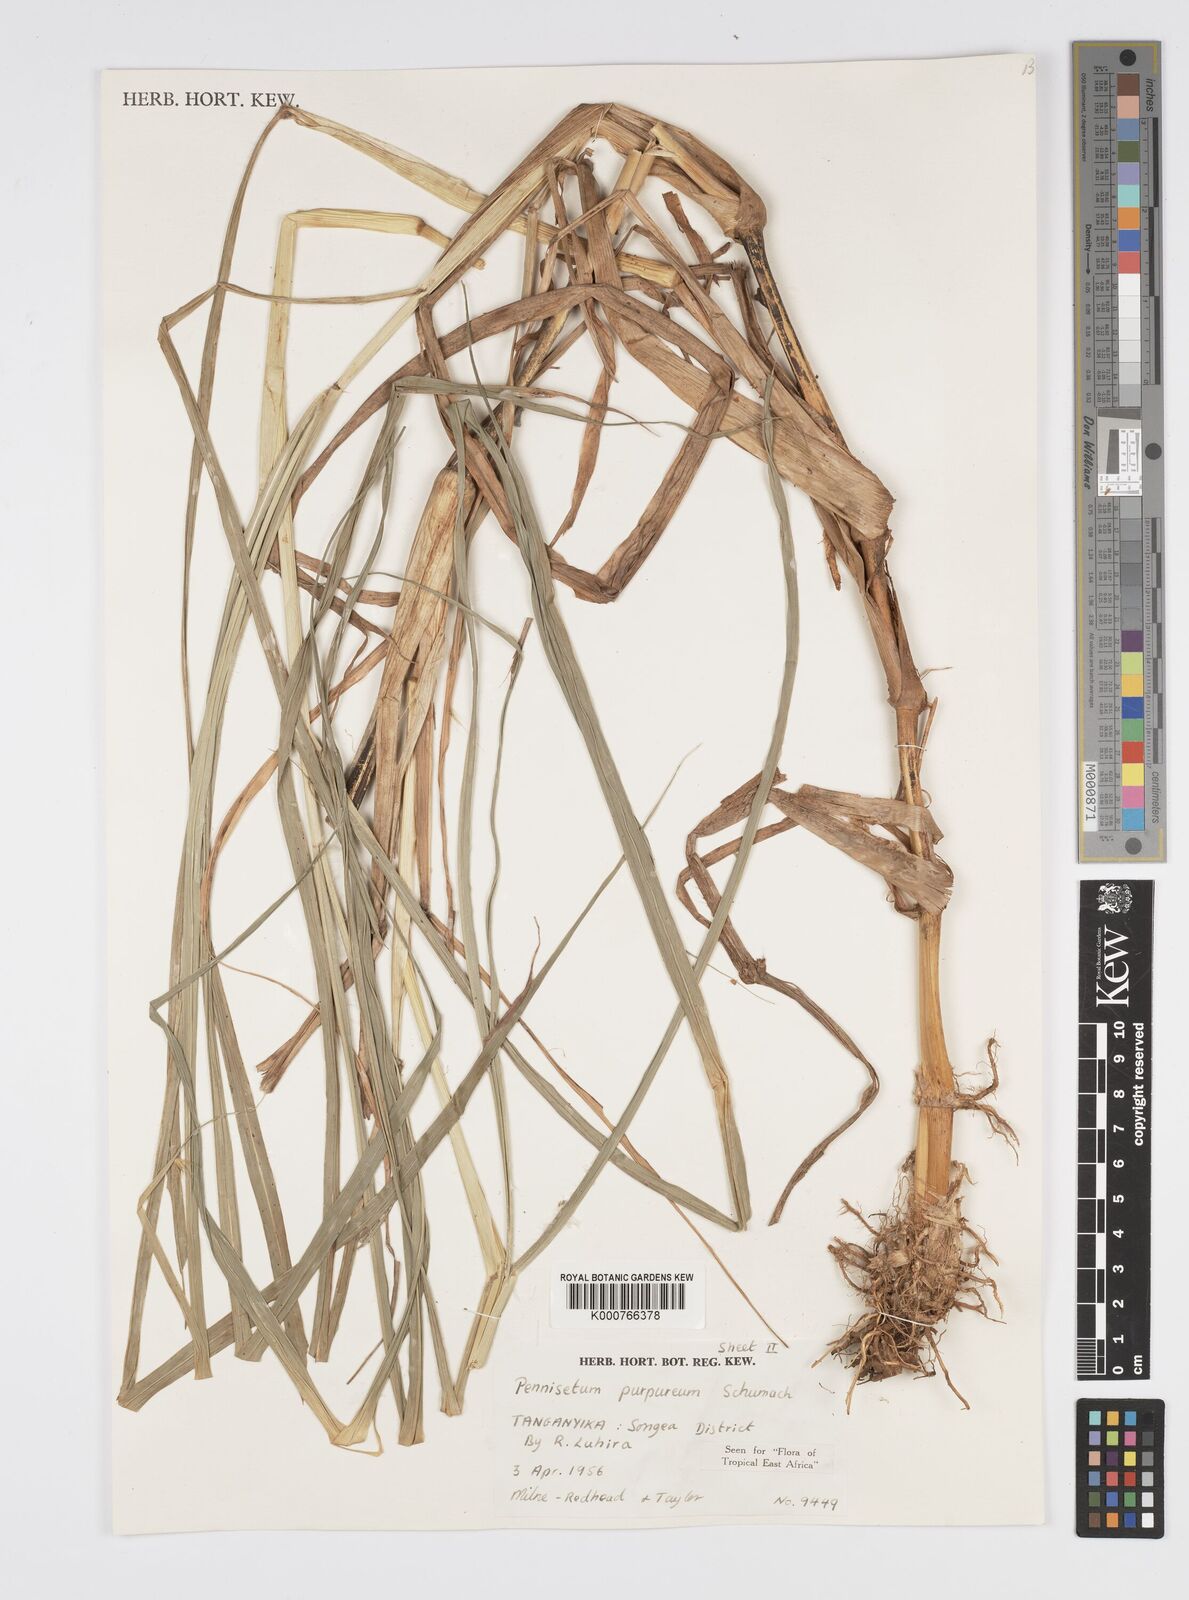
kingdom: Plantae
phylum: Tracheophyta
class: Liliopsida
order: Poales
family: Poaceae
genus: Cenchrus
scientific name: Cenchrus purpureus
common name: Elephant grass
